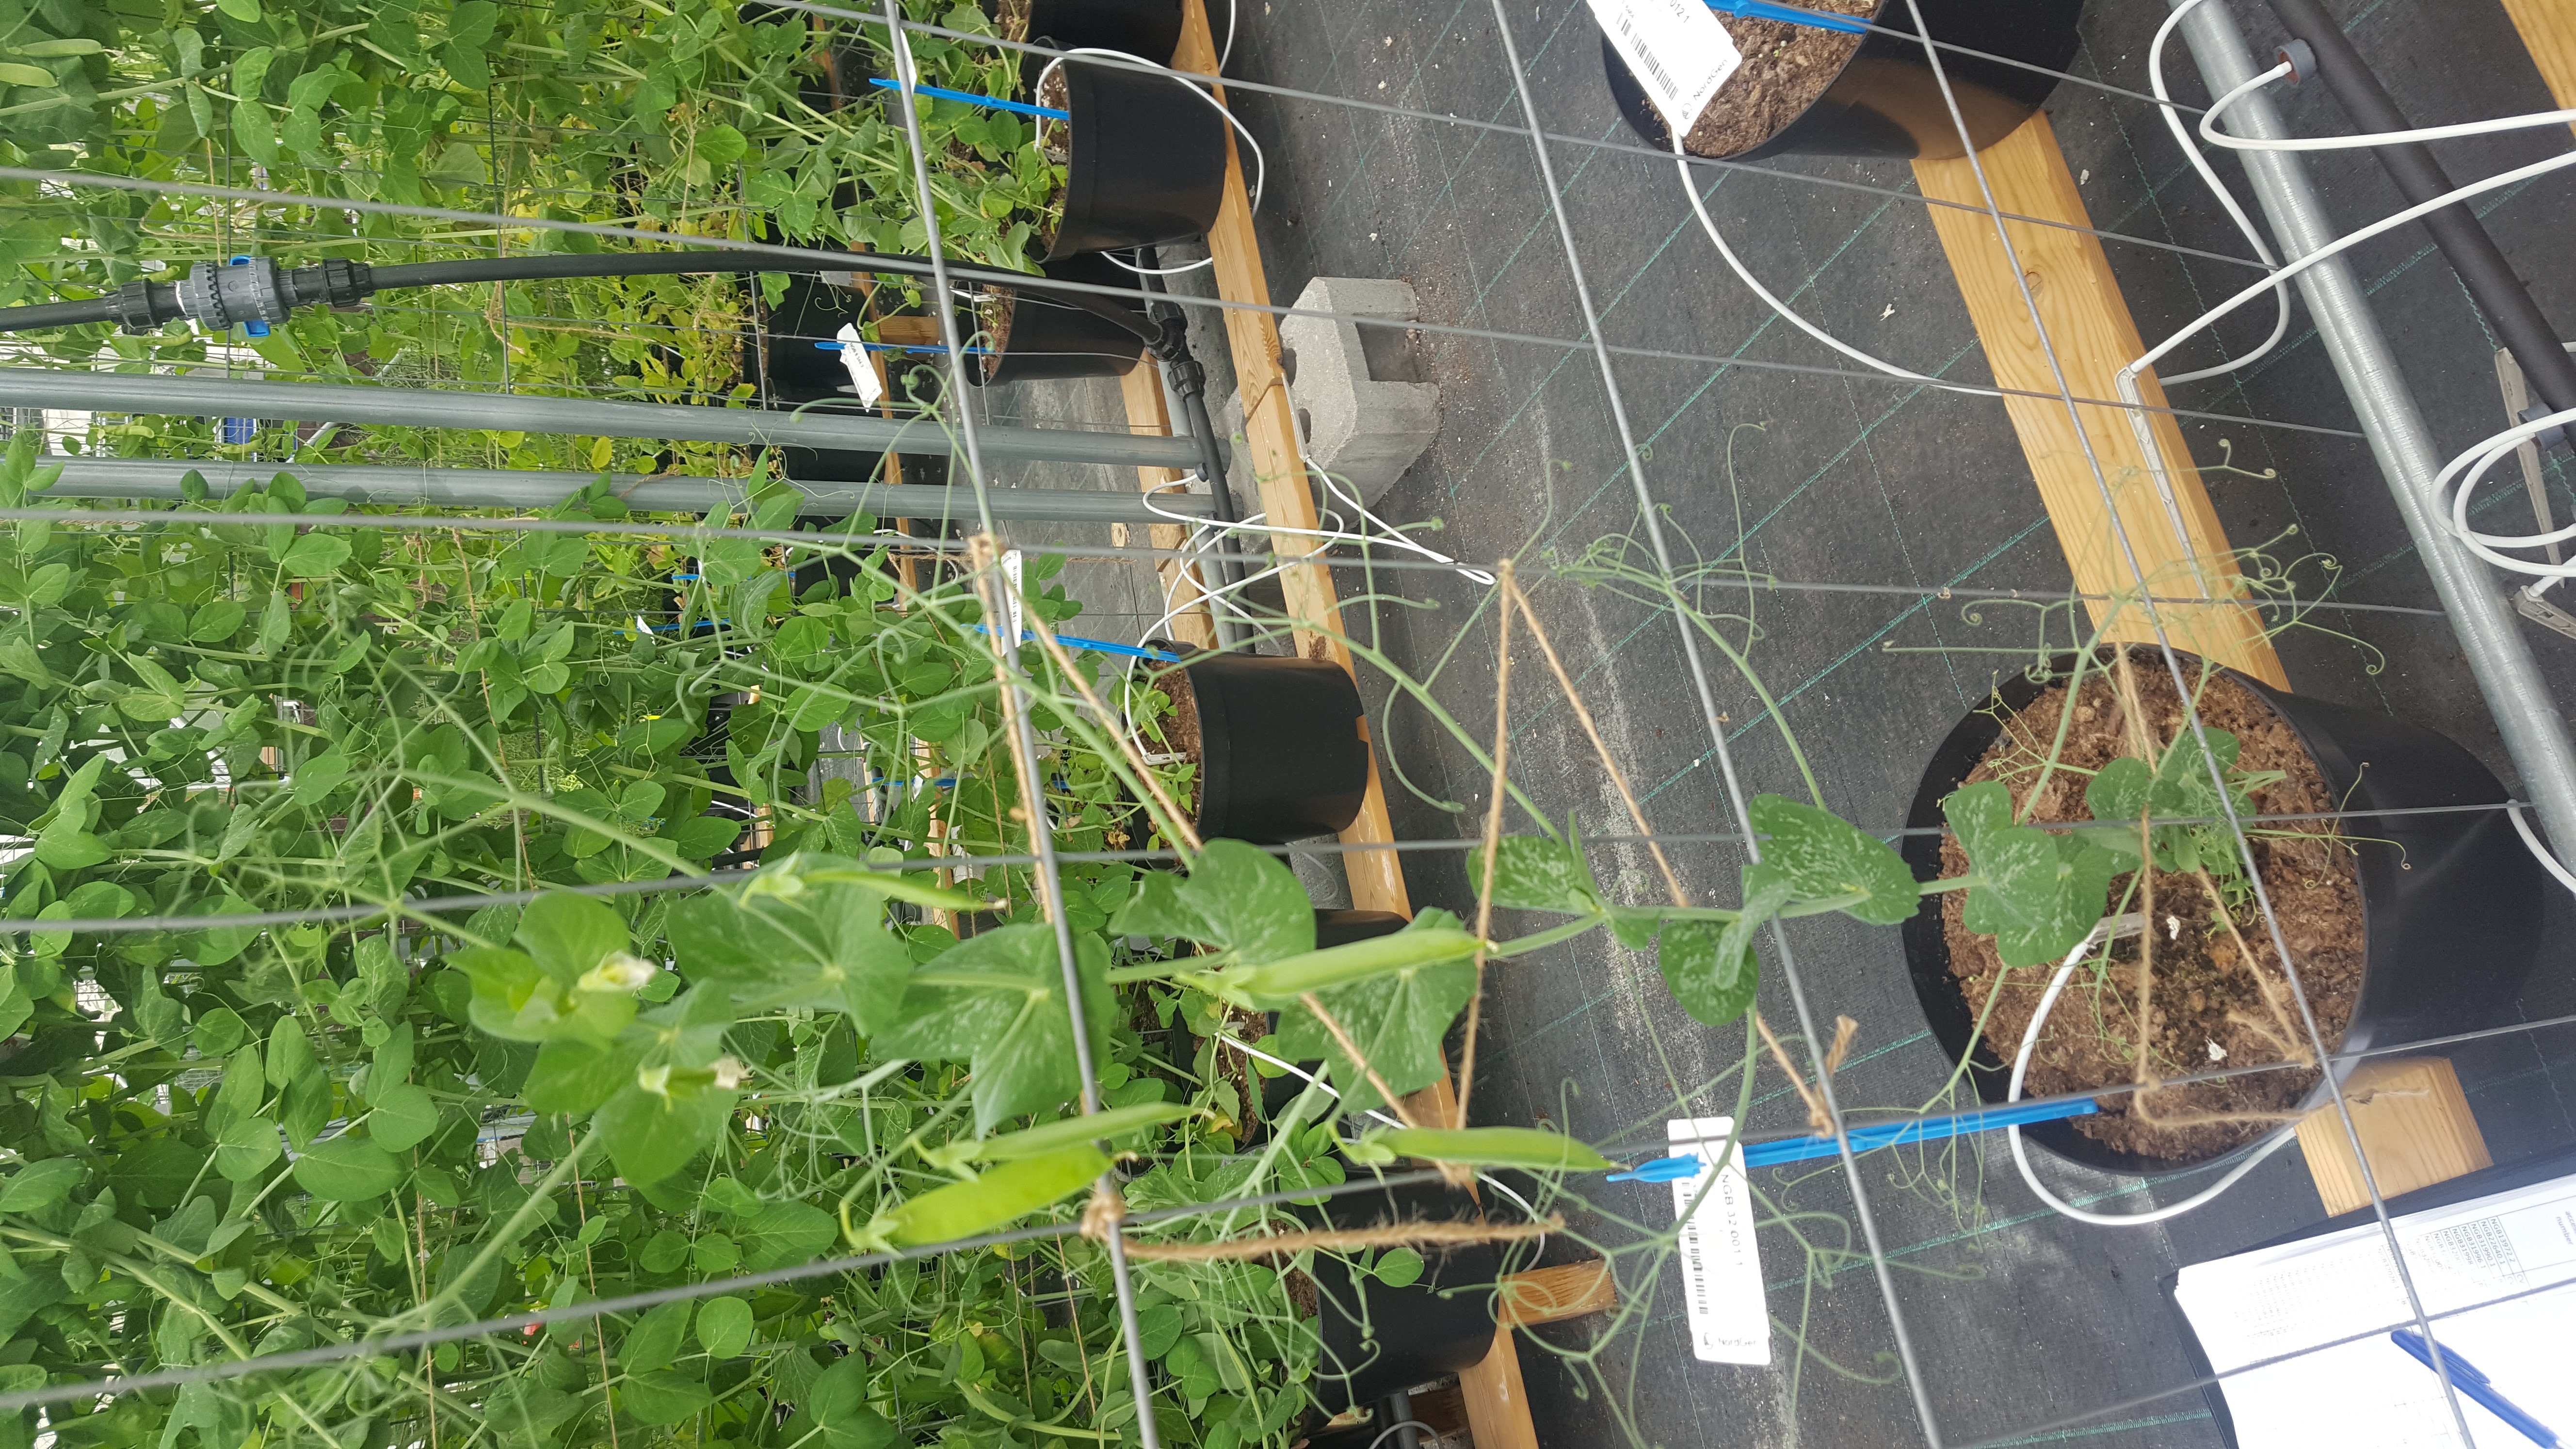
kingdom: Plantae
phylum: Tracheophyta
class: Magnoliopsida
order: Fabales
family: Fabaceae
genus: Lathyrus
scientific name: Lathyrus oleraceus
